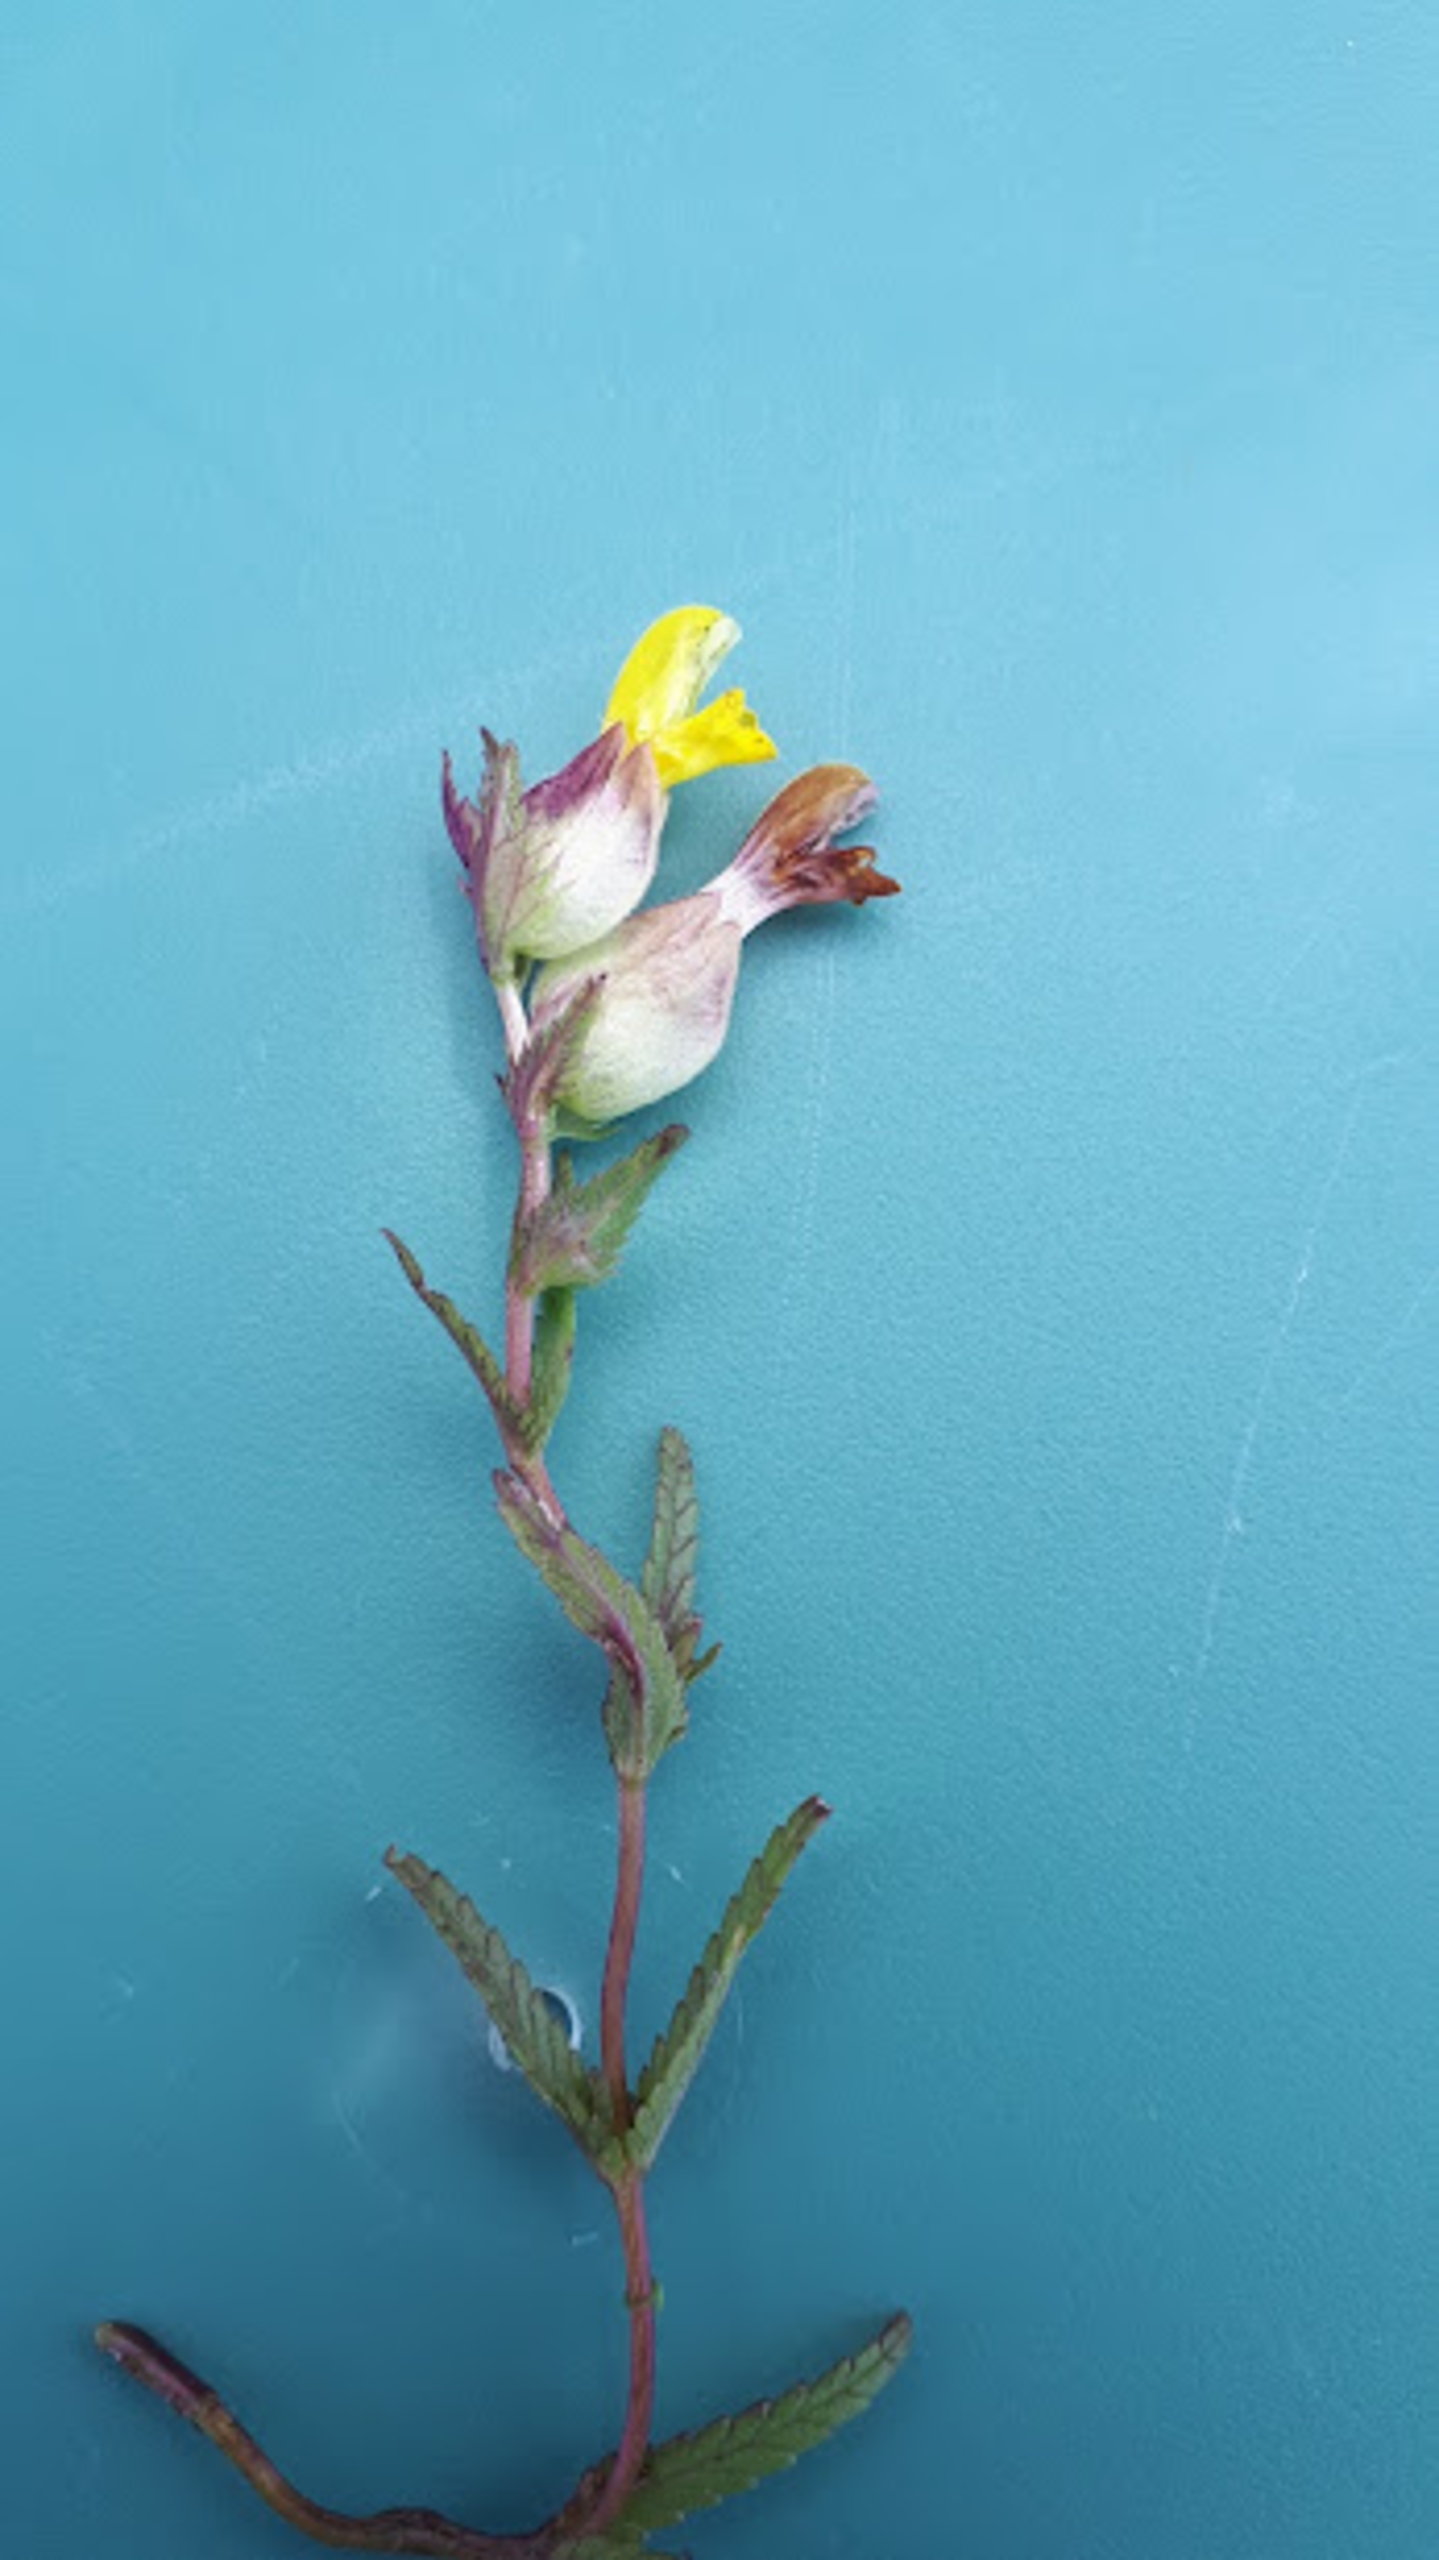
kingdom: Plantae
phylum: Tracheophyta
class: Magnoliopsida
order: Lamiales
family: Orobanchaceae
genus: Rhinanthus
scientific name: Rhinanthus minor
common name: Liden skjaller
